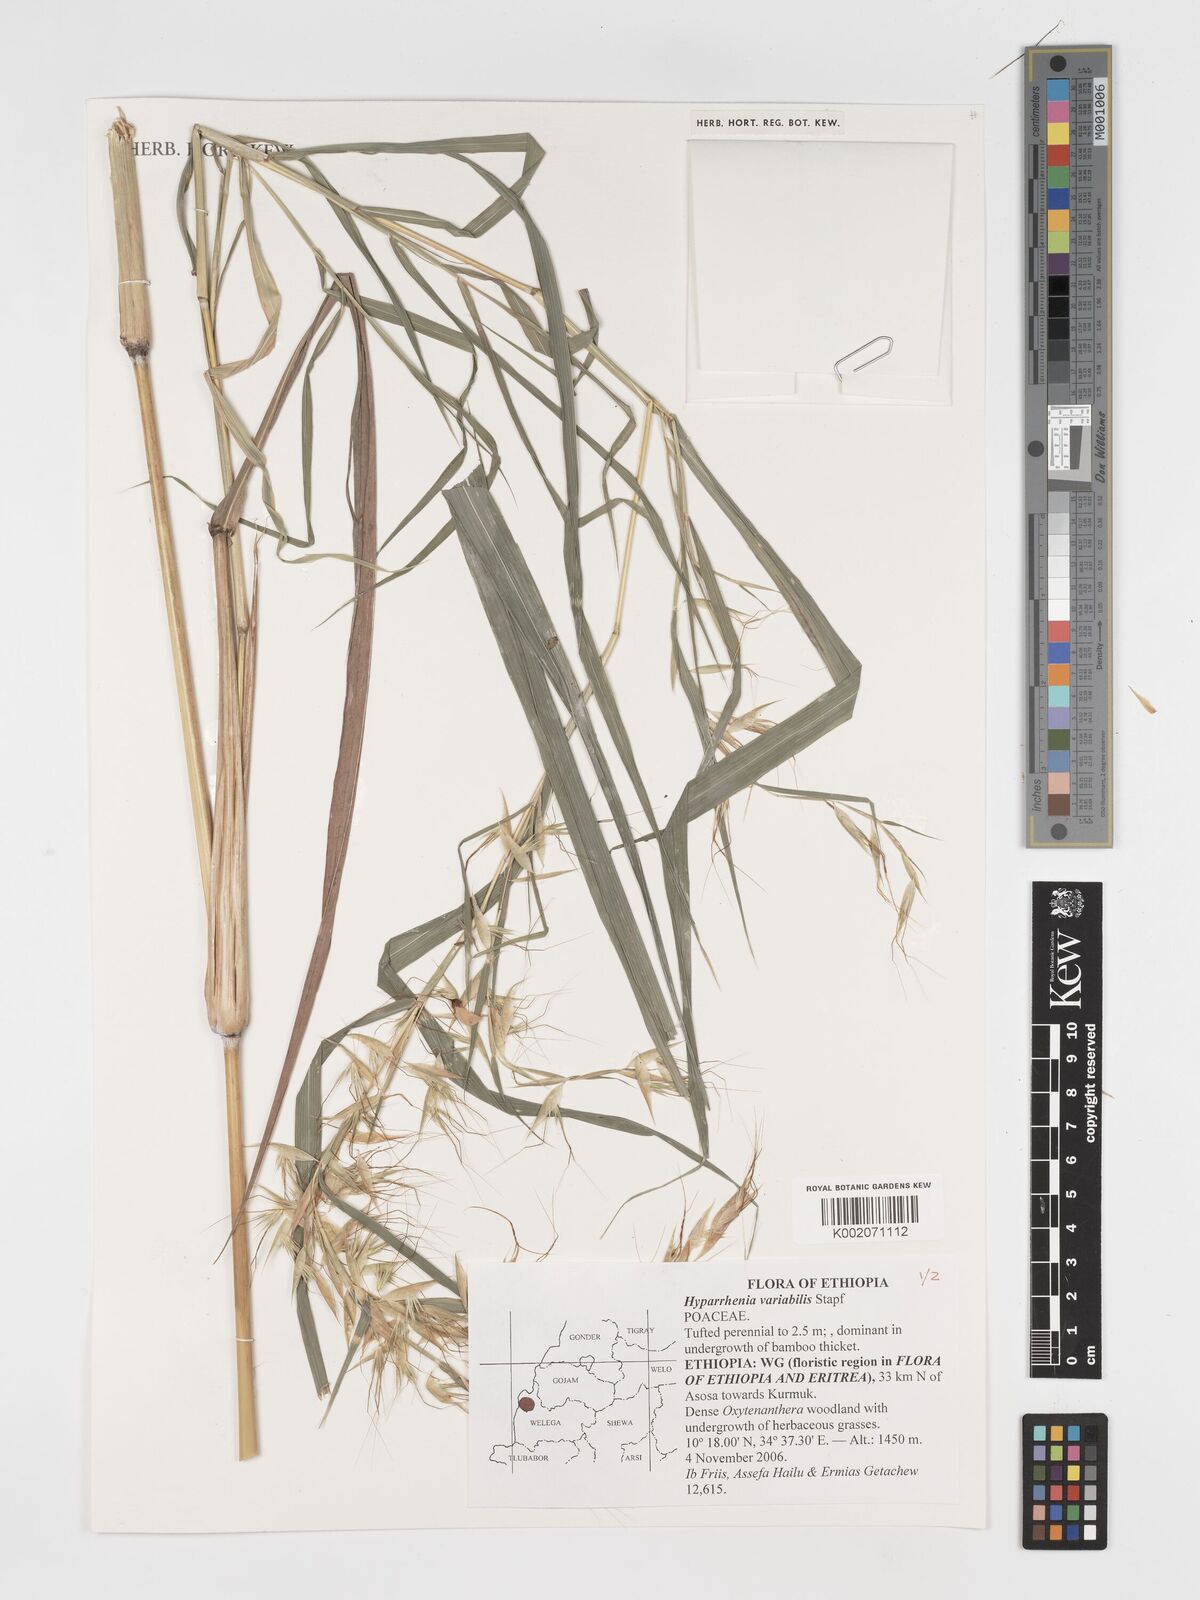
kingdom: Plantae
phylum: Tracheophyta
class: Liliopsida
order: Poales
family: Poaceae
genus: Hyparrhenia
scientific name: Hyparrhenia variabilis
